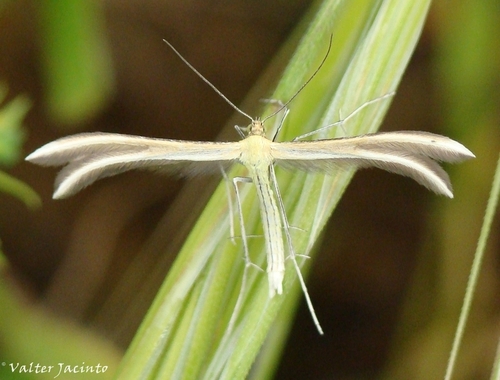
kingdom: Animalia
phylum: Arthropoda
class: Insecta
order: Lepidoptera
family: Pterophoridae
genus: Merrifieldia
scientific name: Merrifieldia tridactyla
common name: Western thyme plume
